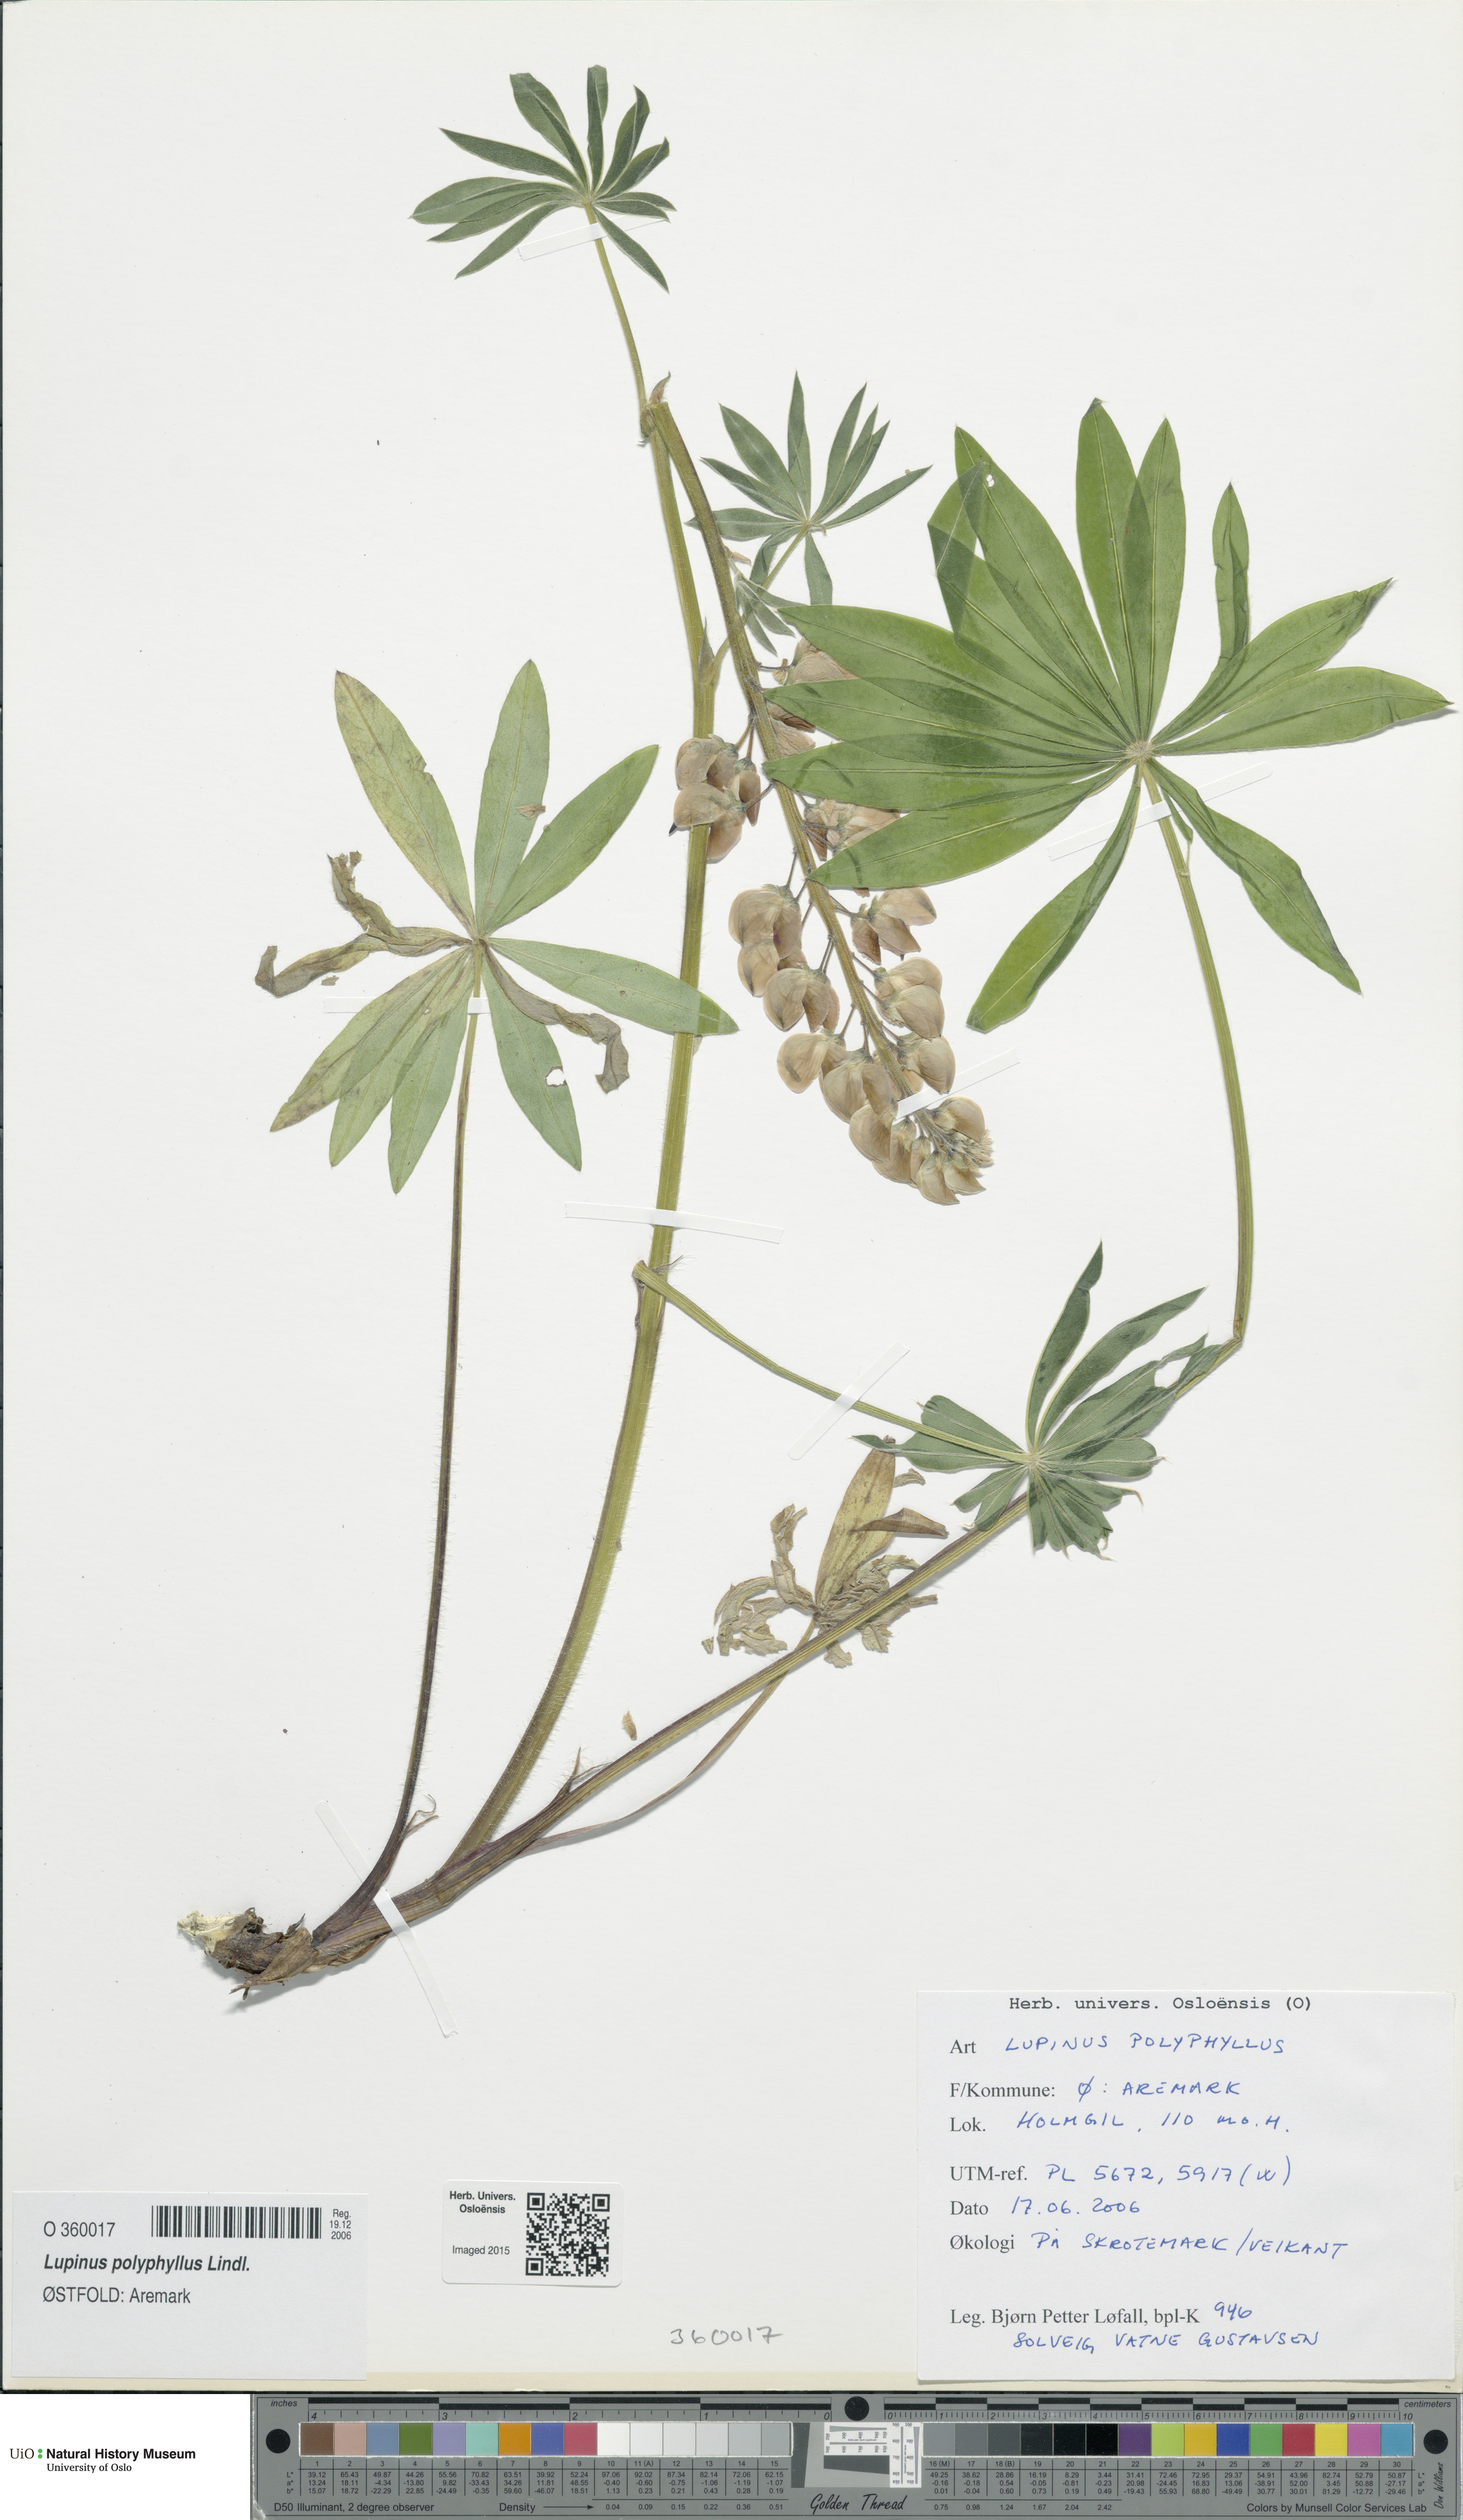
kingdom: Plantae
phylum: Tracheophyta
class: Magnoliopsida
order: Fabales
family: Fabaceae
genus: Lupinus
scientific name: Lupinus polyphyllus
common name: Garden lupin
